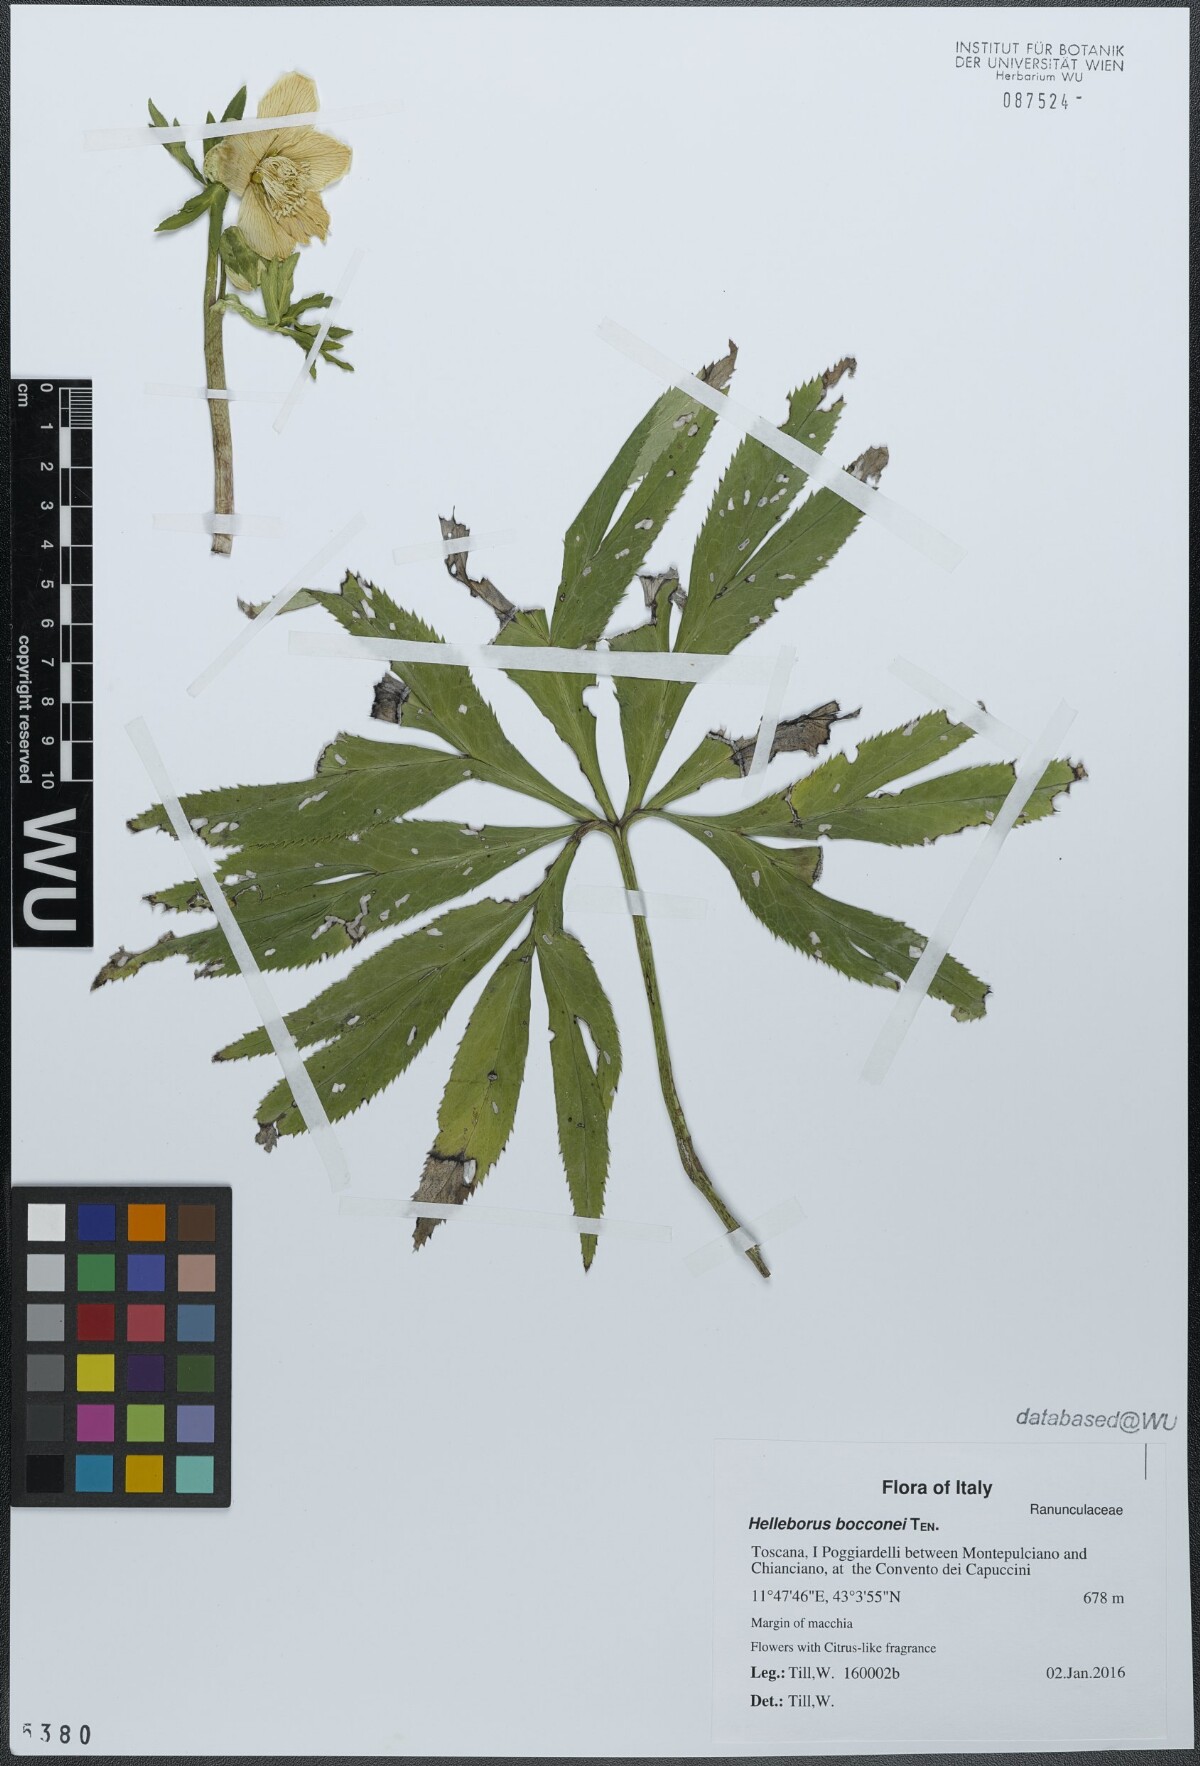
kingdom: Plantae
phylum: Tracheophyta
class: Magnoliopsida
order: Ranunculales
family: Ranunculaceae
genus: Helleborus
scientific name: Helleborus bocconei
